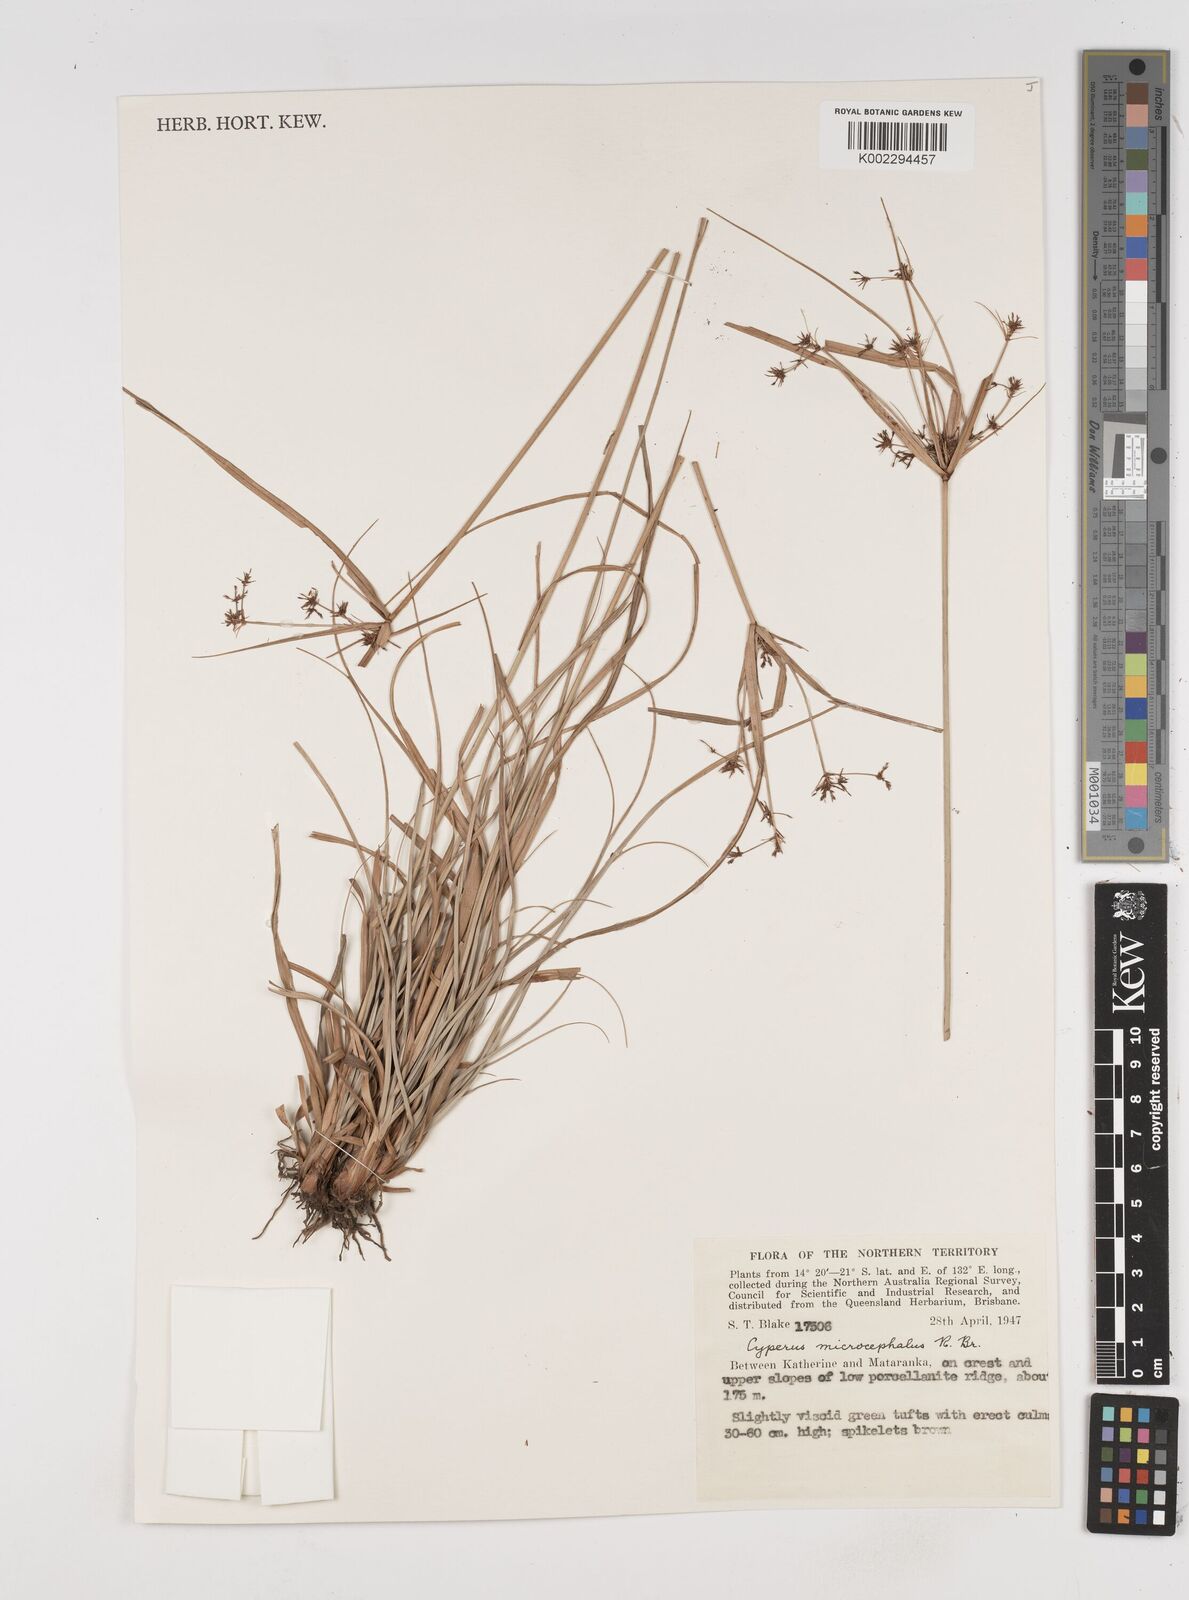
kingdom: Plantae
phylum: Tracheophyta
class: Liliopsida
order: Poales
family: Cyperaceae
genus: Cyperus
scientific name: Cyperus microcephalus
